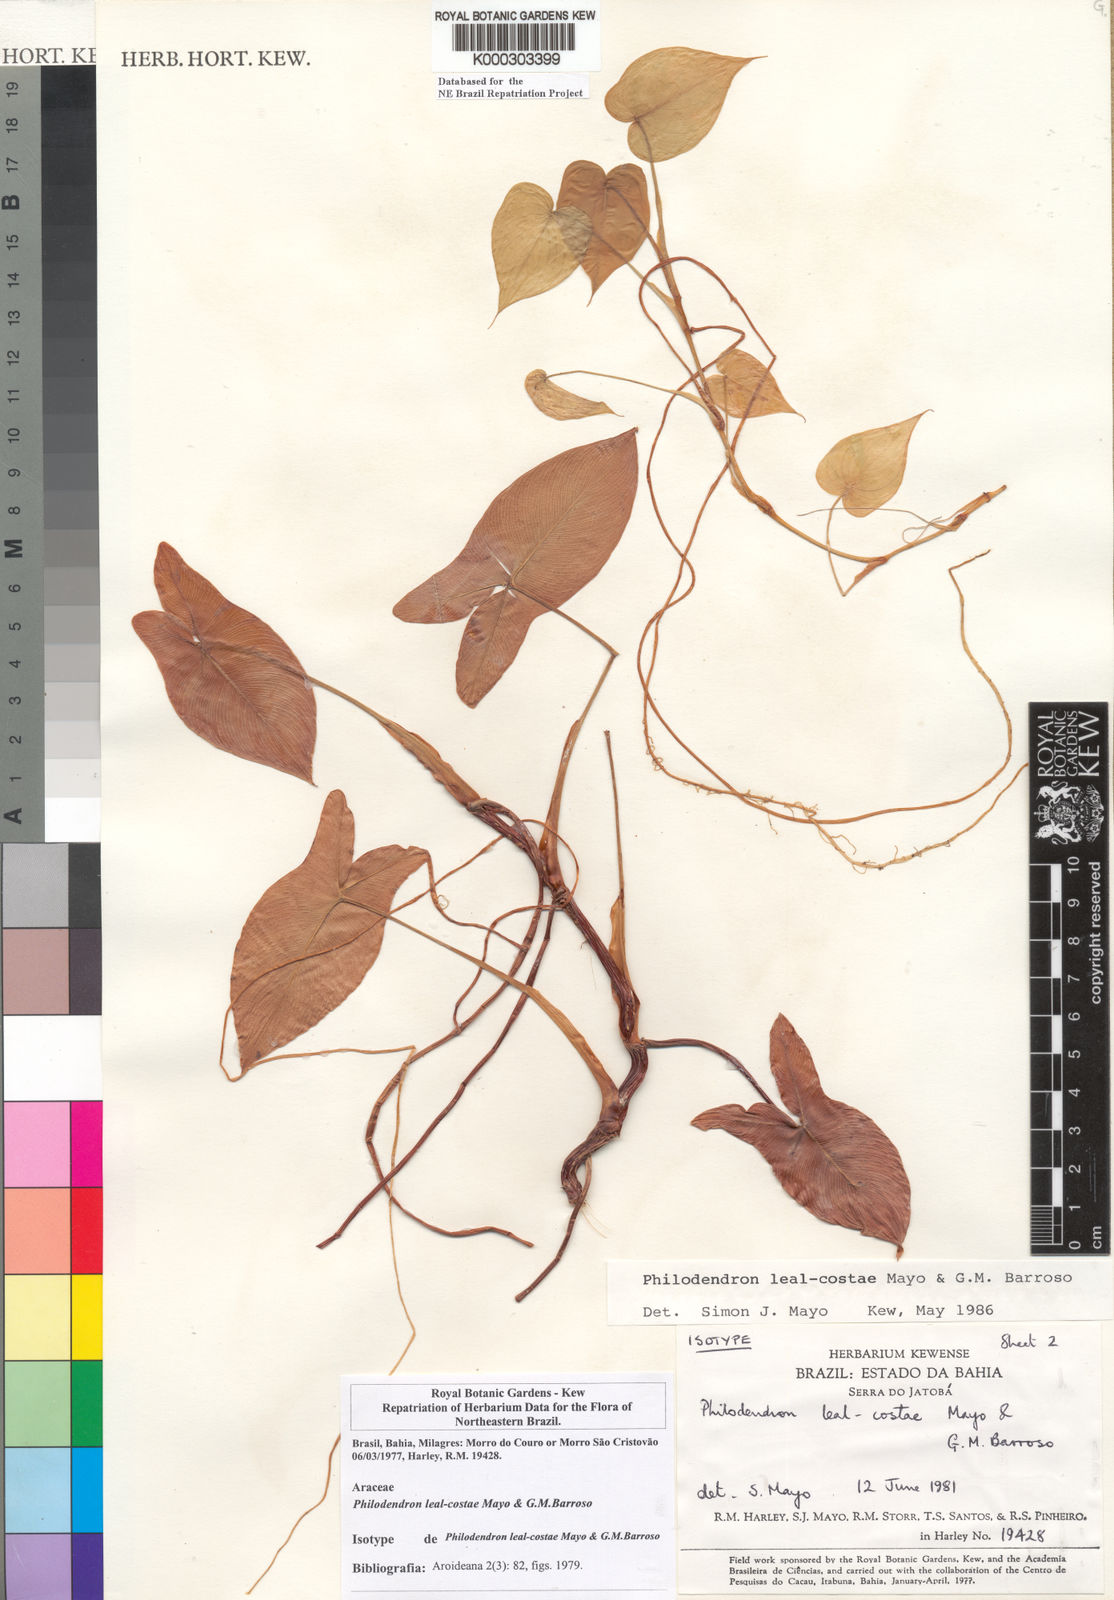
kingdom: Plantae
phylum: Tracheophyta
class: Liliopsida
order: Alismatales
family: Araceae
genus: Thaumatophyllum
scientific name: Thaumatophyllum leal-costae
